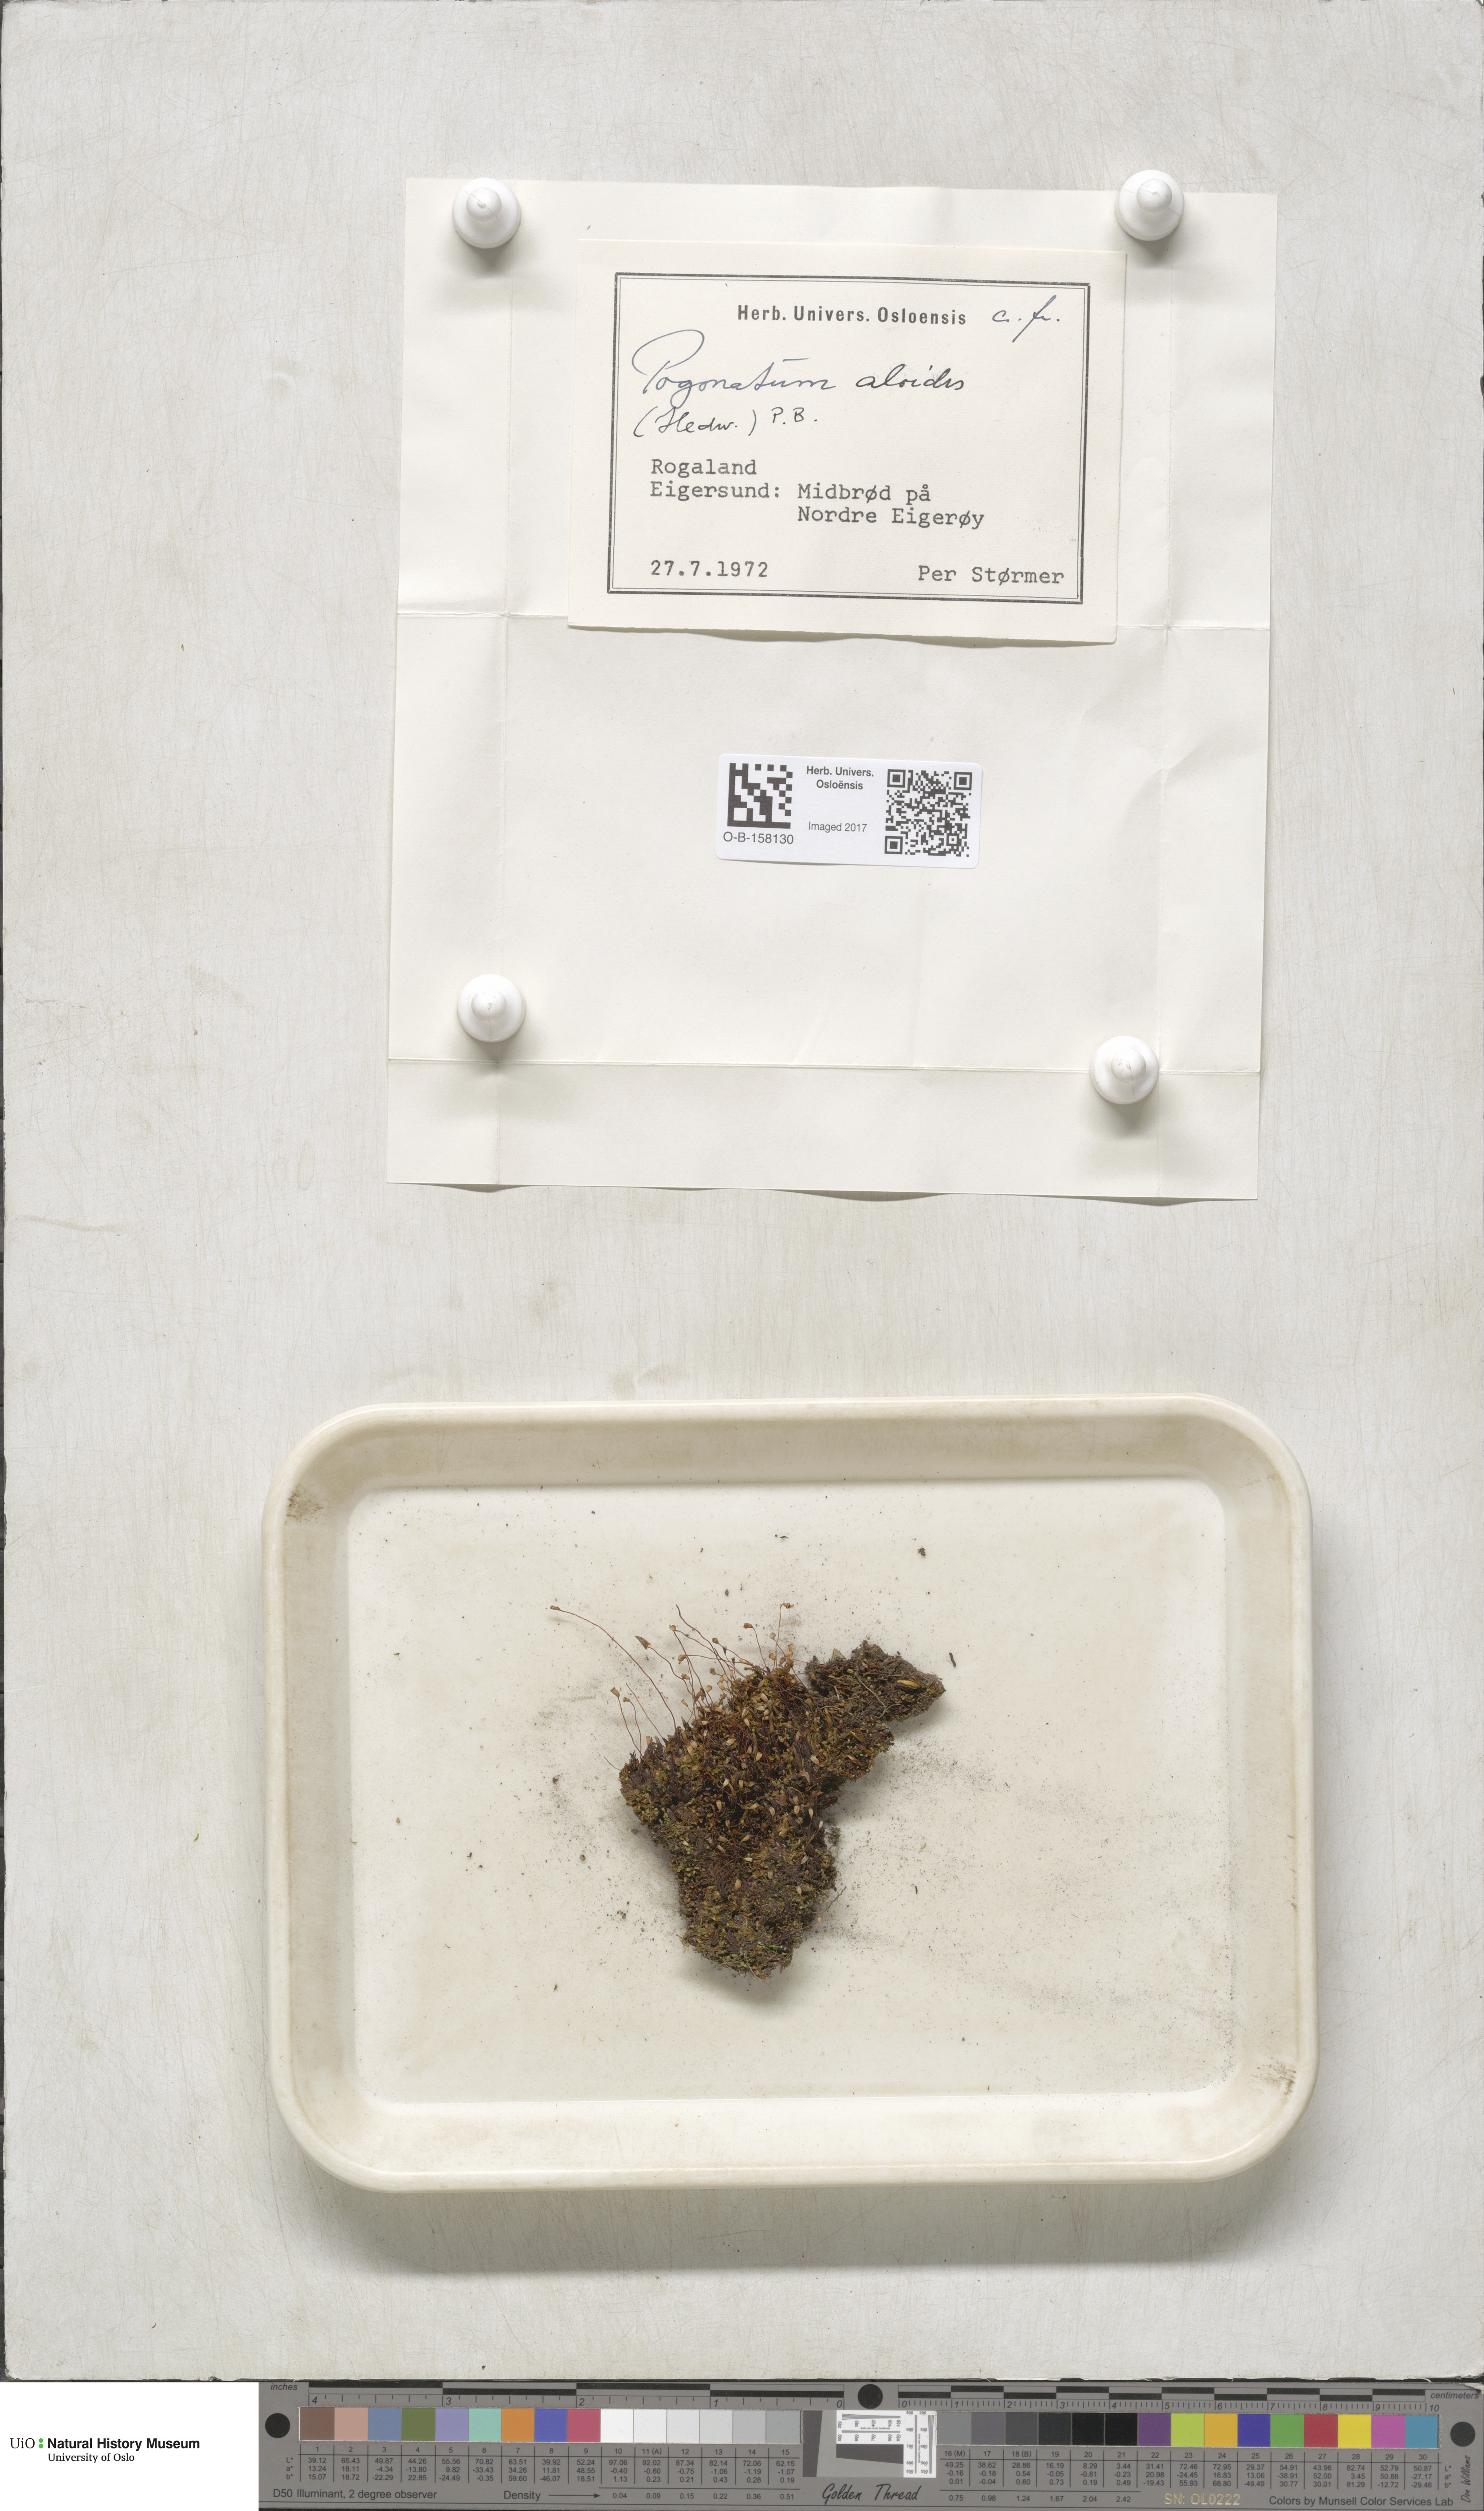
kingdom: Plantae
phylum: Bryophyta
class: Polytrichopsida
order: Polytrichales
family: Polytrichaceae
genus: Pogonatum
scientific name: Pogonatum aloides
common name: Aloe haircap
